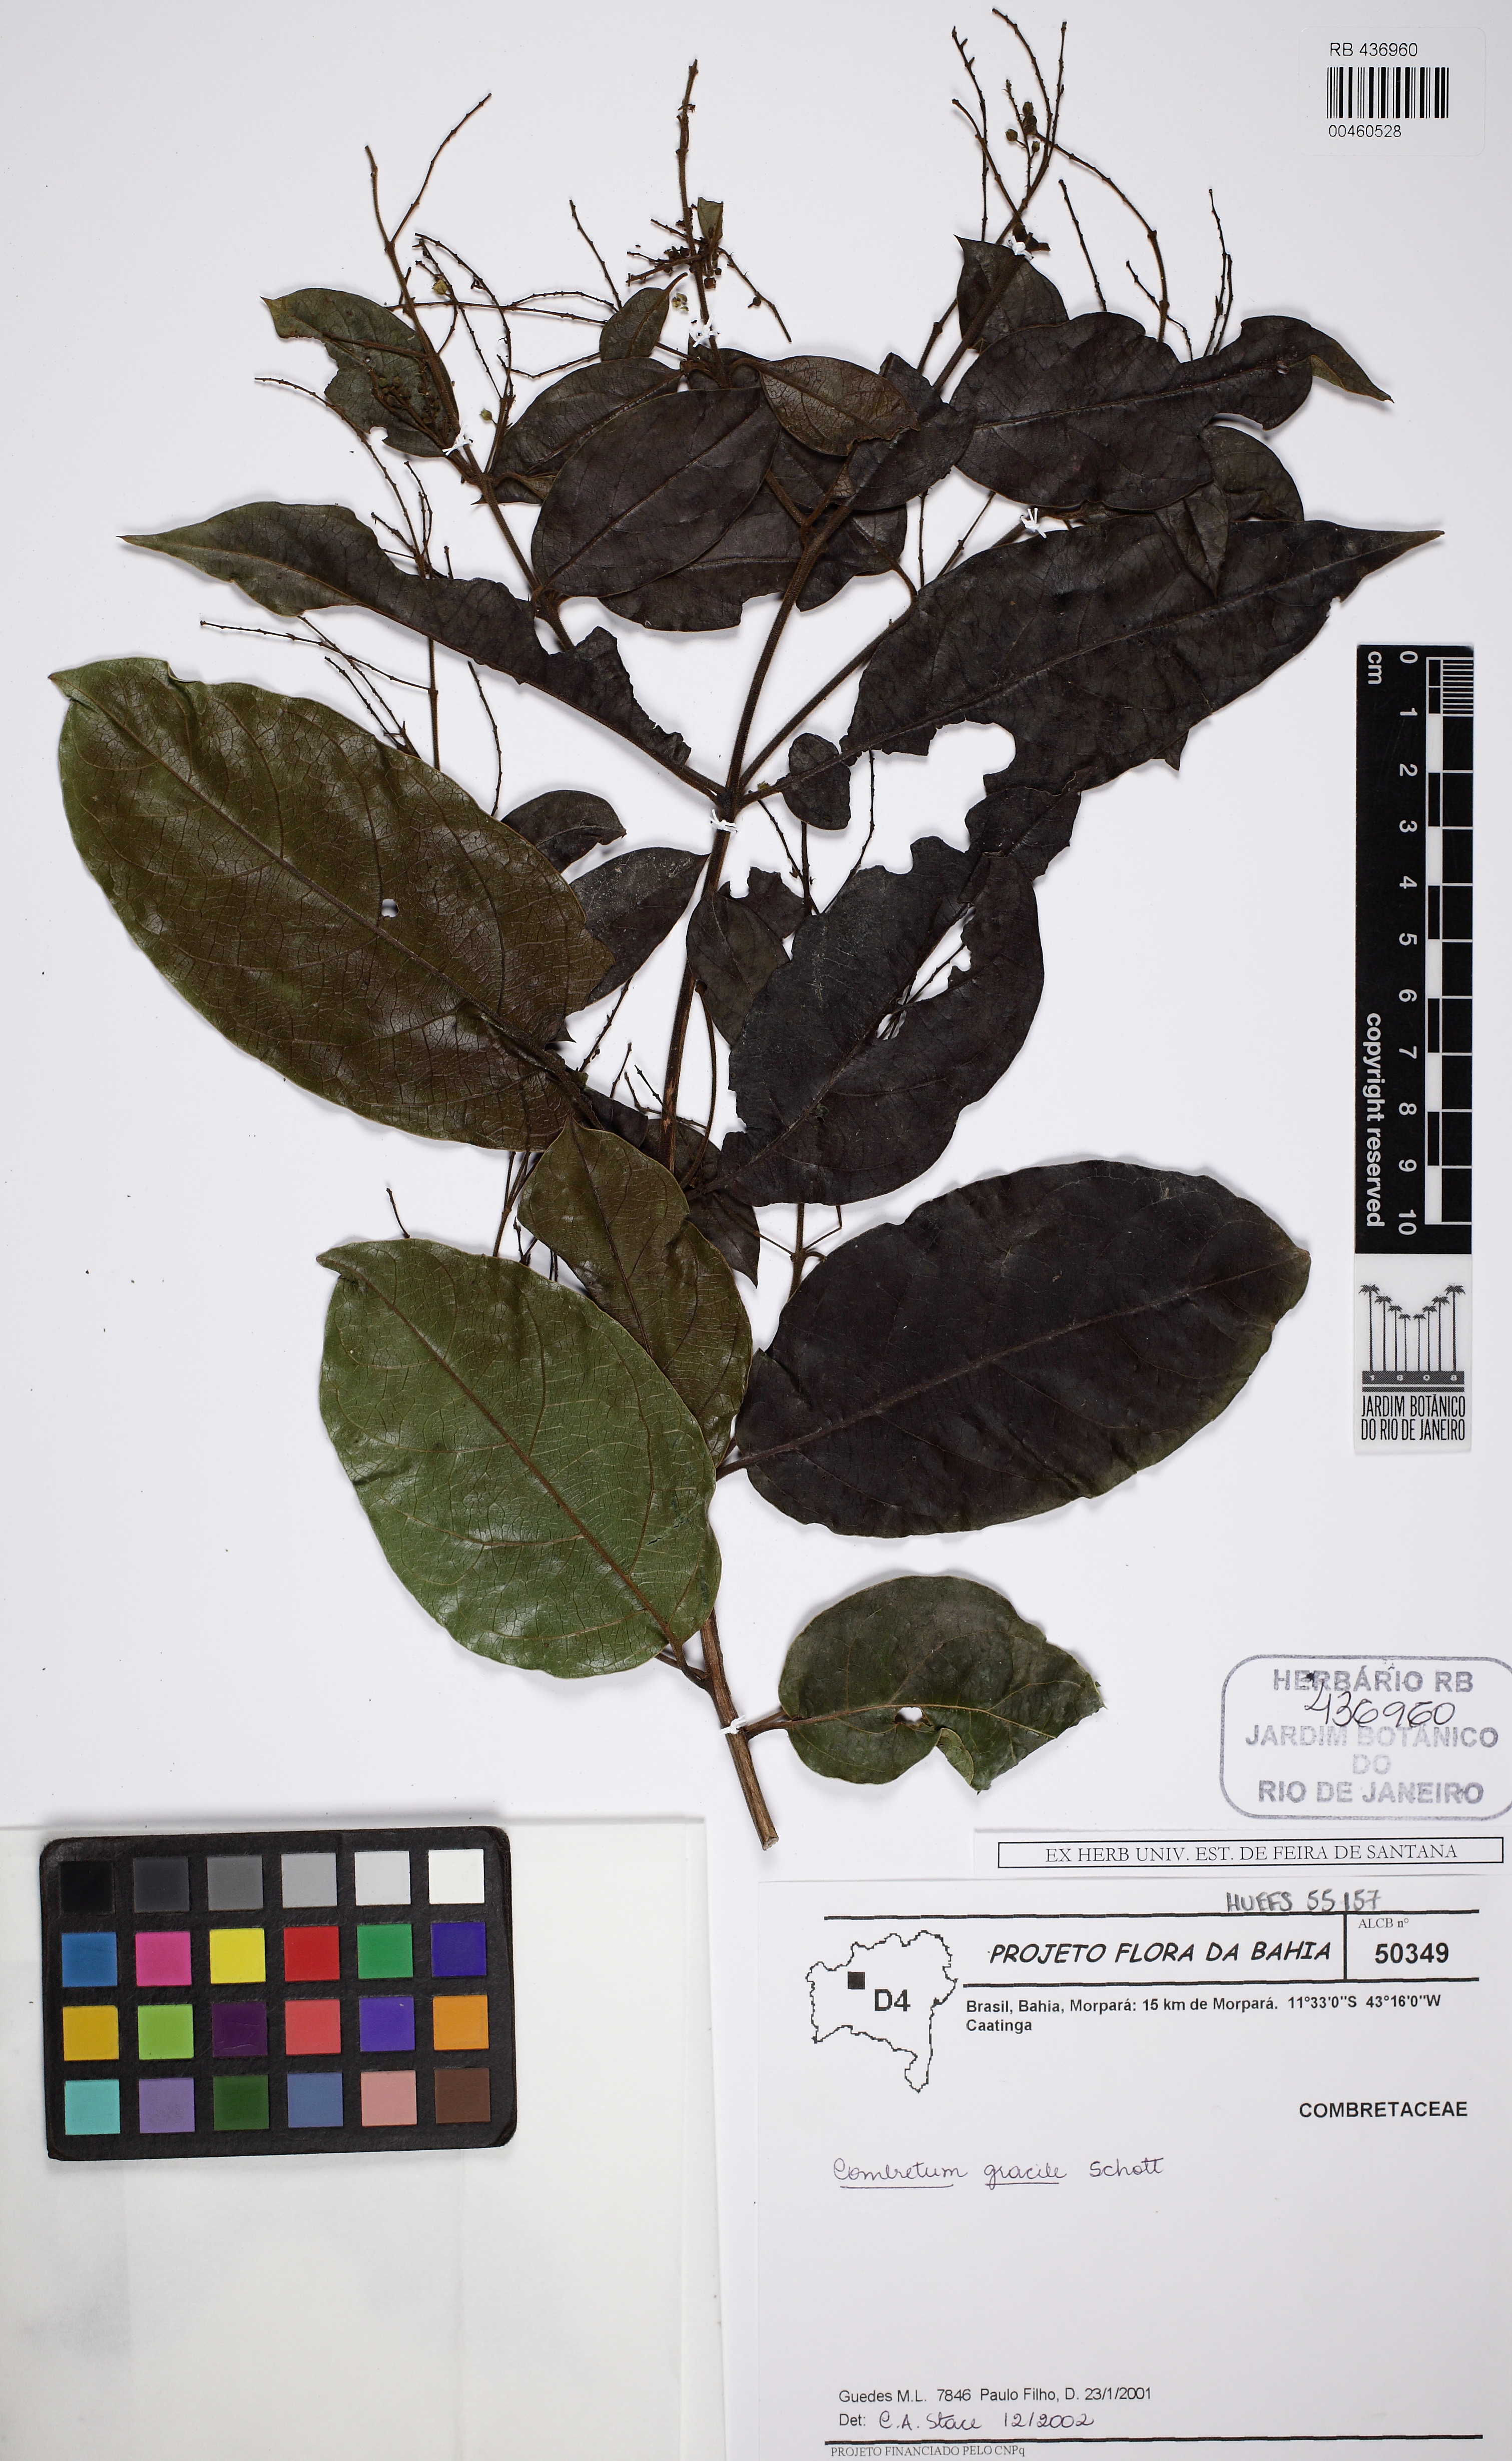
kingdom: Plantae
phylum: Tracheophyta
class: Magnoliopsida
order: Myrtales
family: Combretaceae
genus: Combretum
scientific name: Combretum gracile
